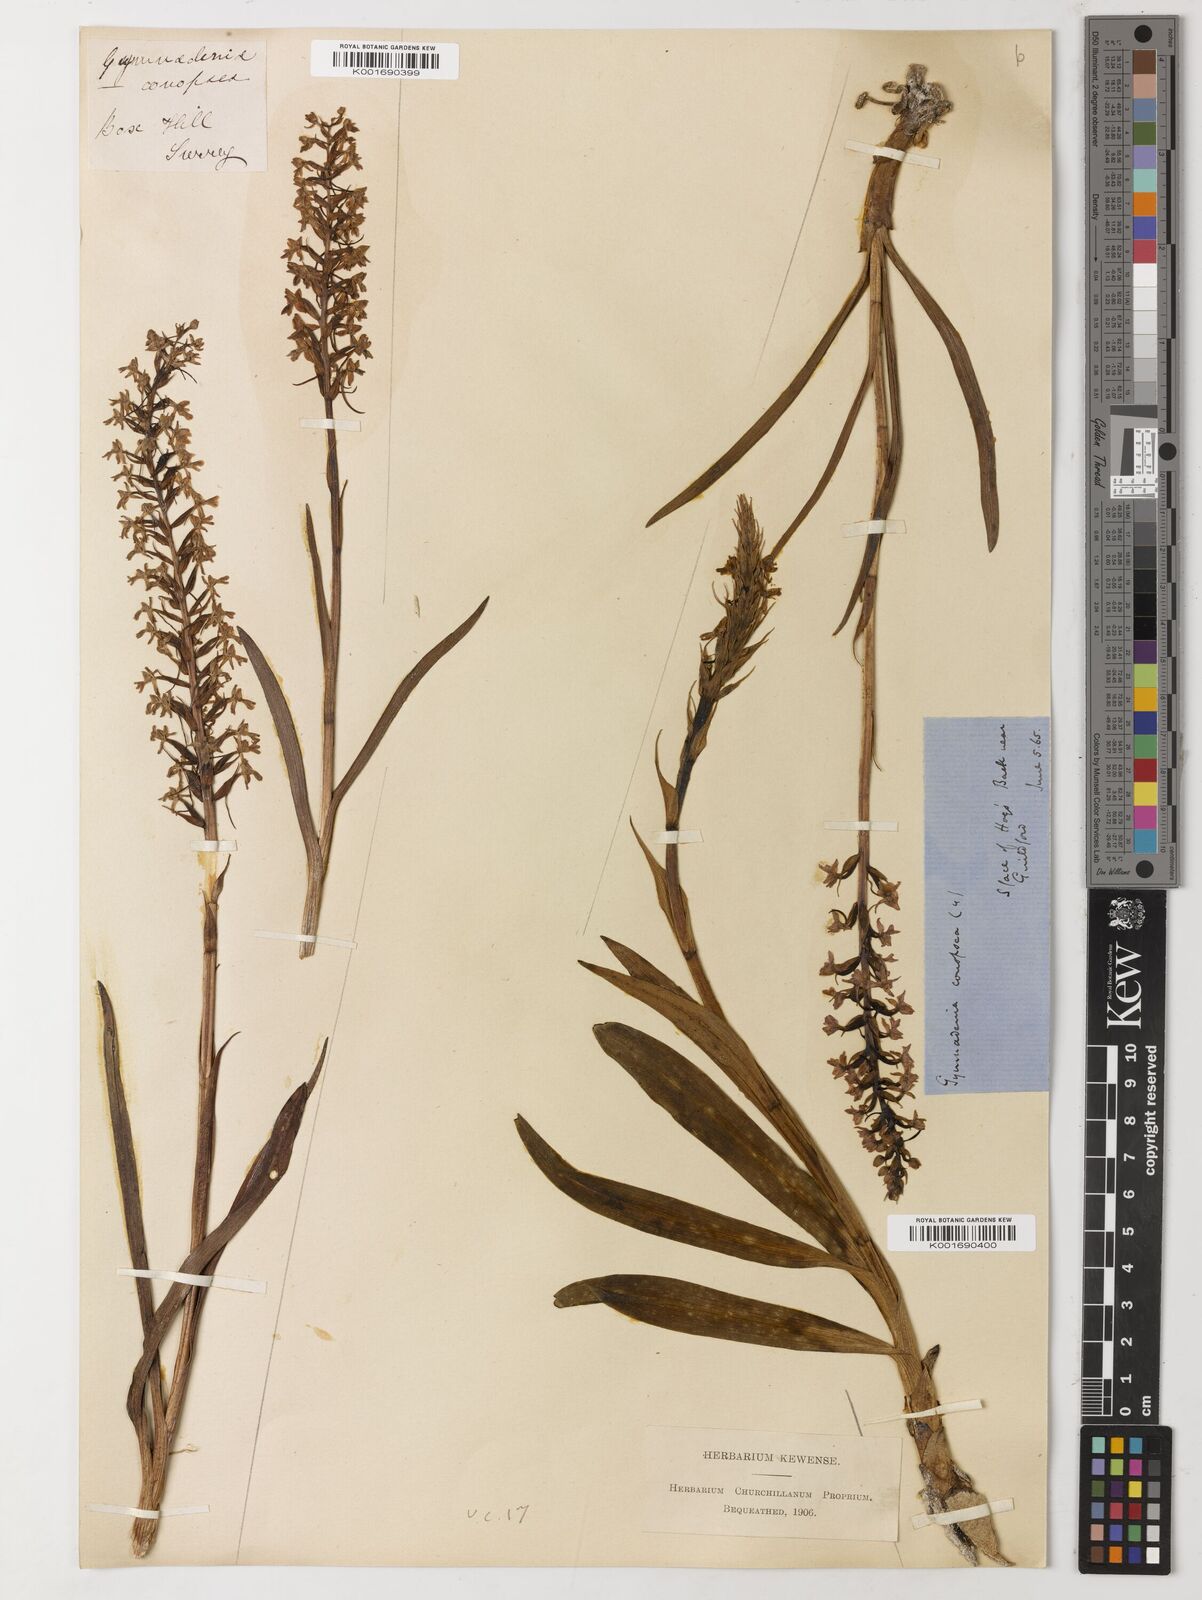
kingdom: Plantae
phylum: Tracheophyta
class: Magnoliopsida
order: Myrtales
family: Combretaceae
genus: Terminalia
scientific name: Terminalia
